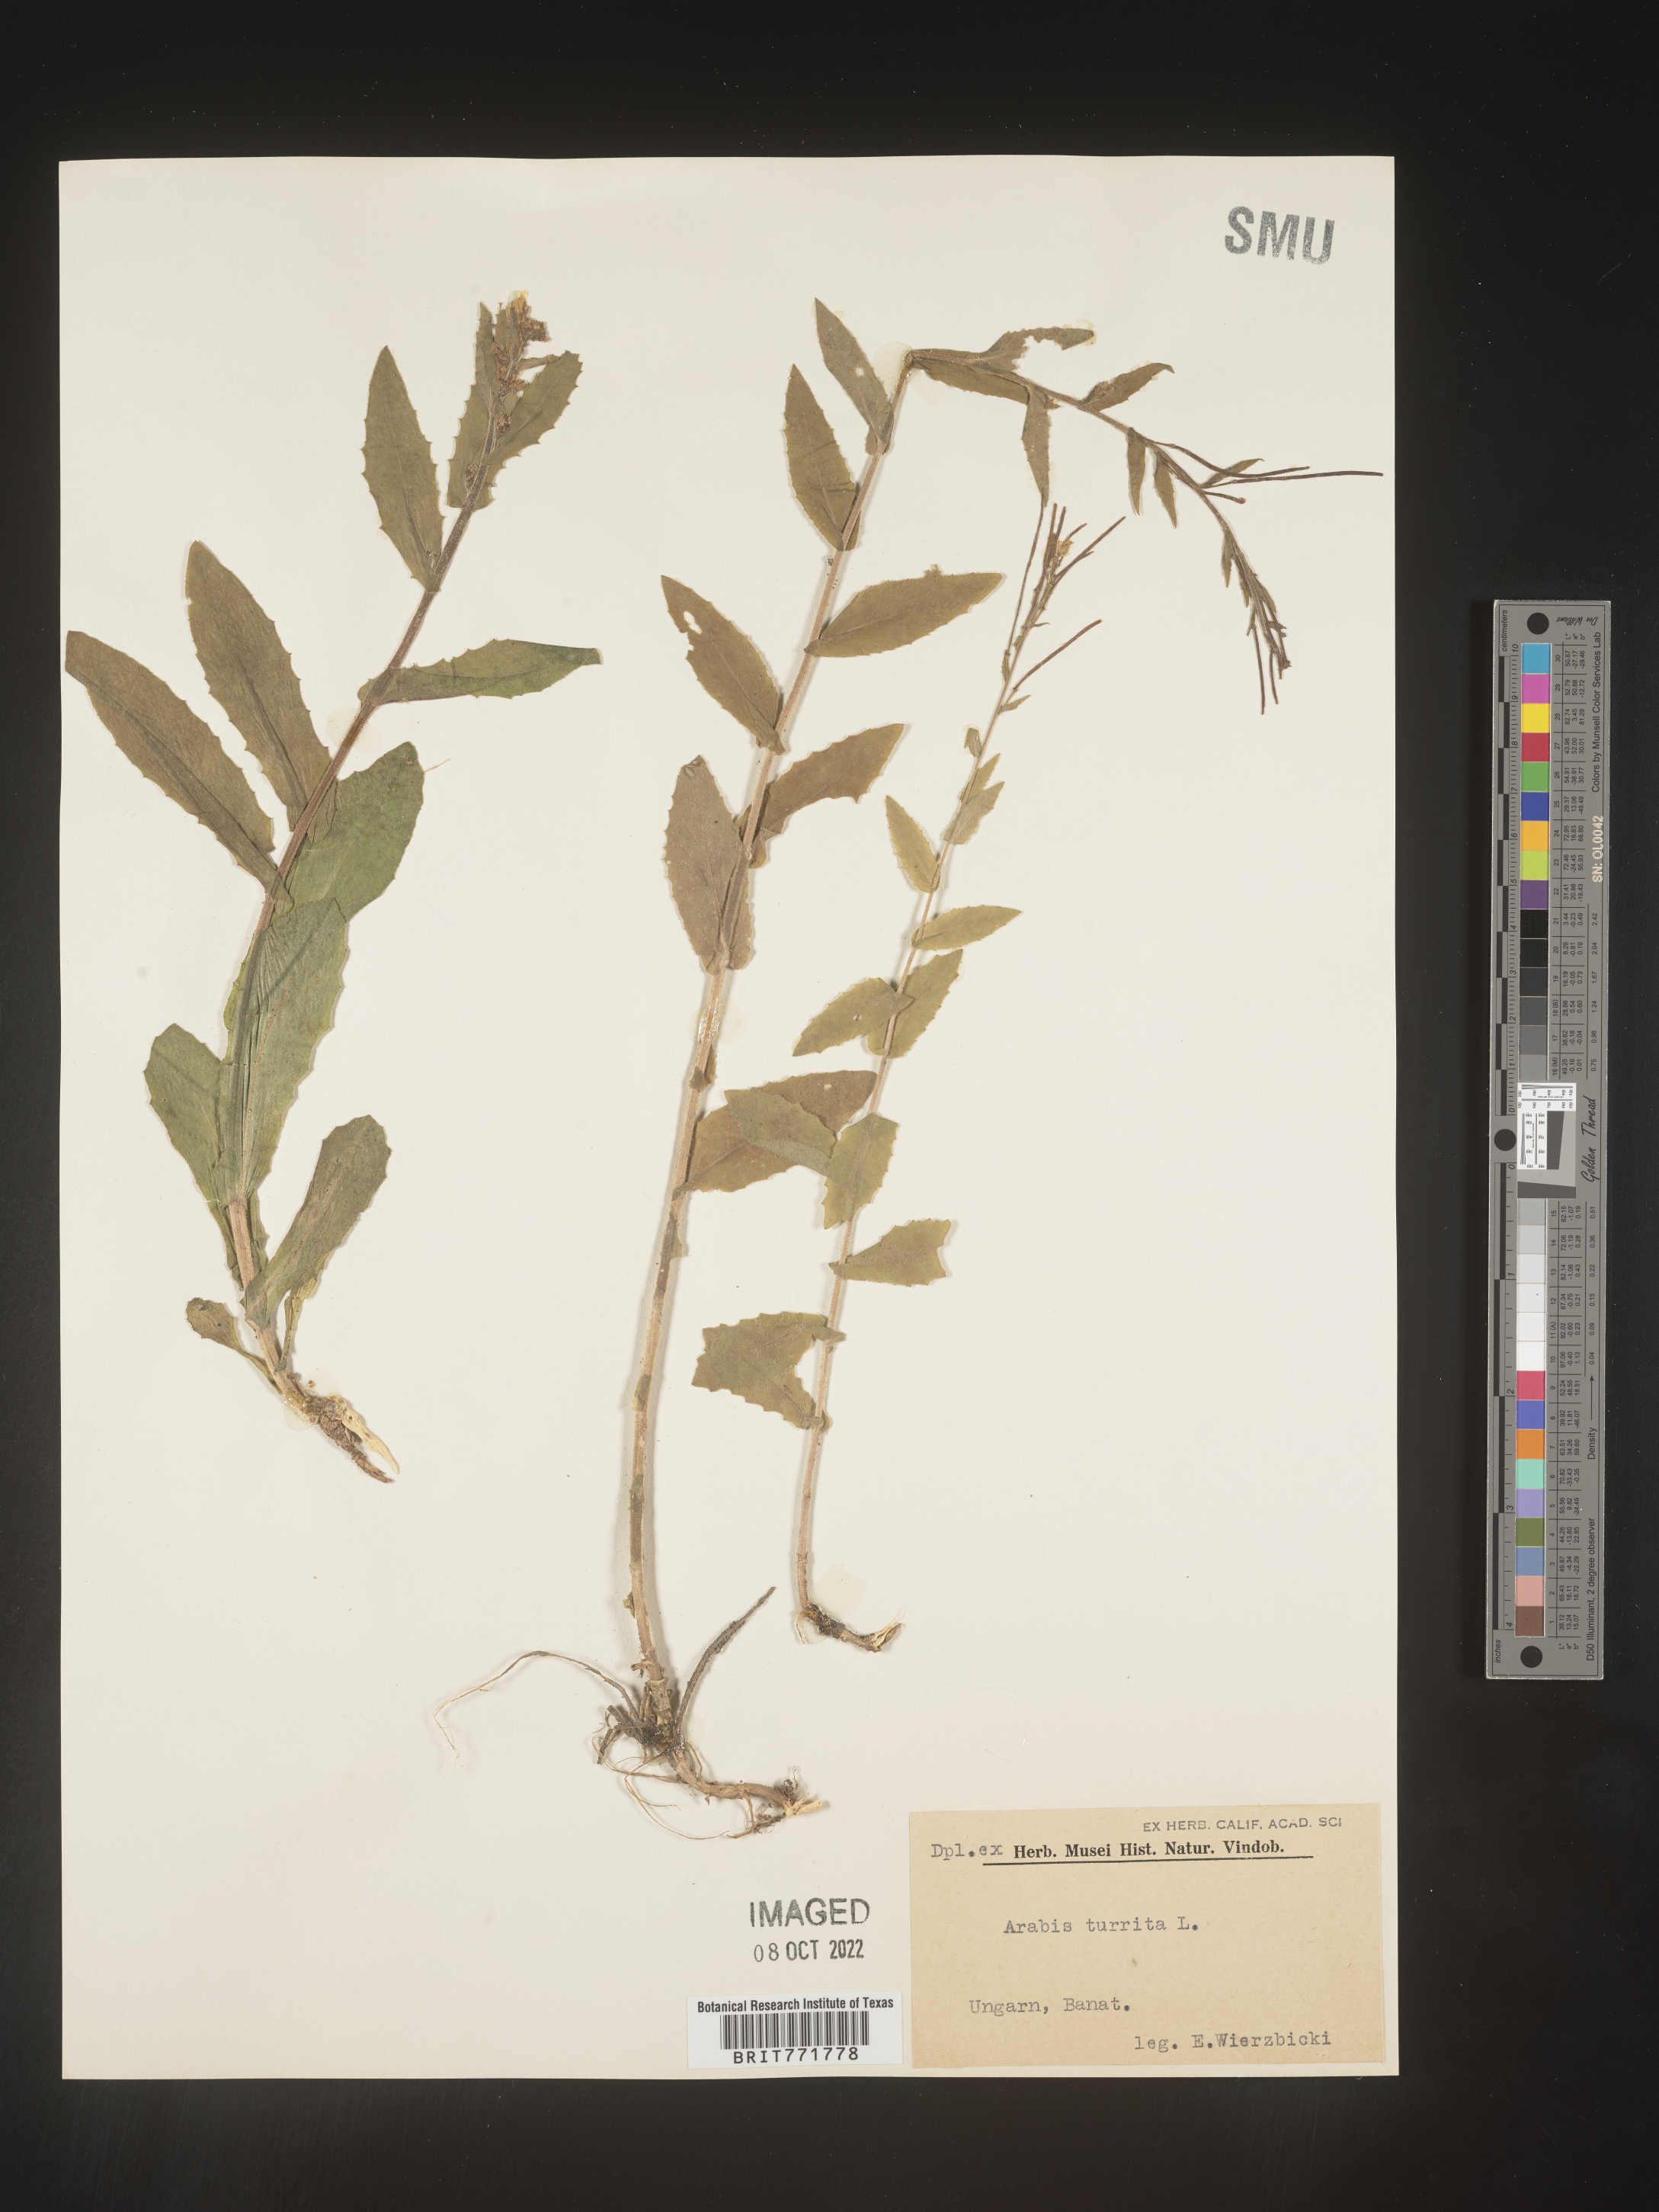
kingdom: Plantae
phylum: Tracheophyta
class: Magnoliopsida
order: Brassicales
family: Brassicaceae
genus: Arabis
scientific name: Arabis
